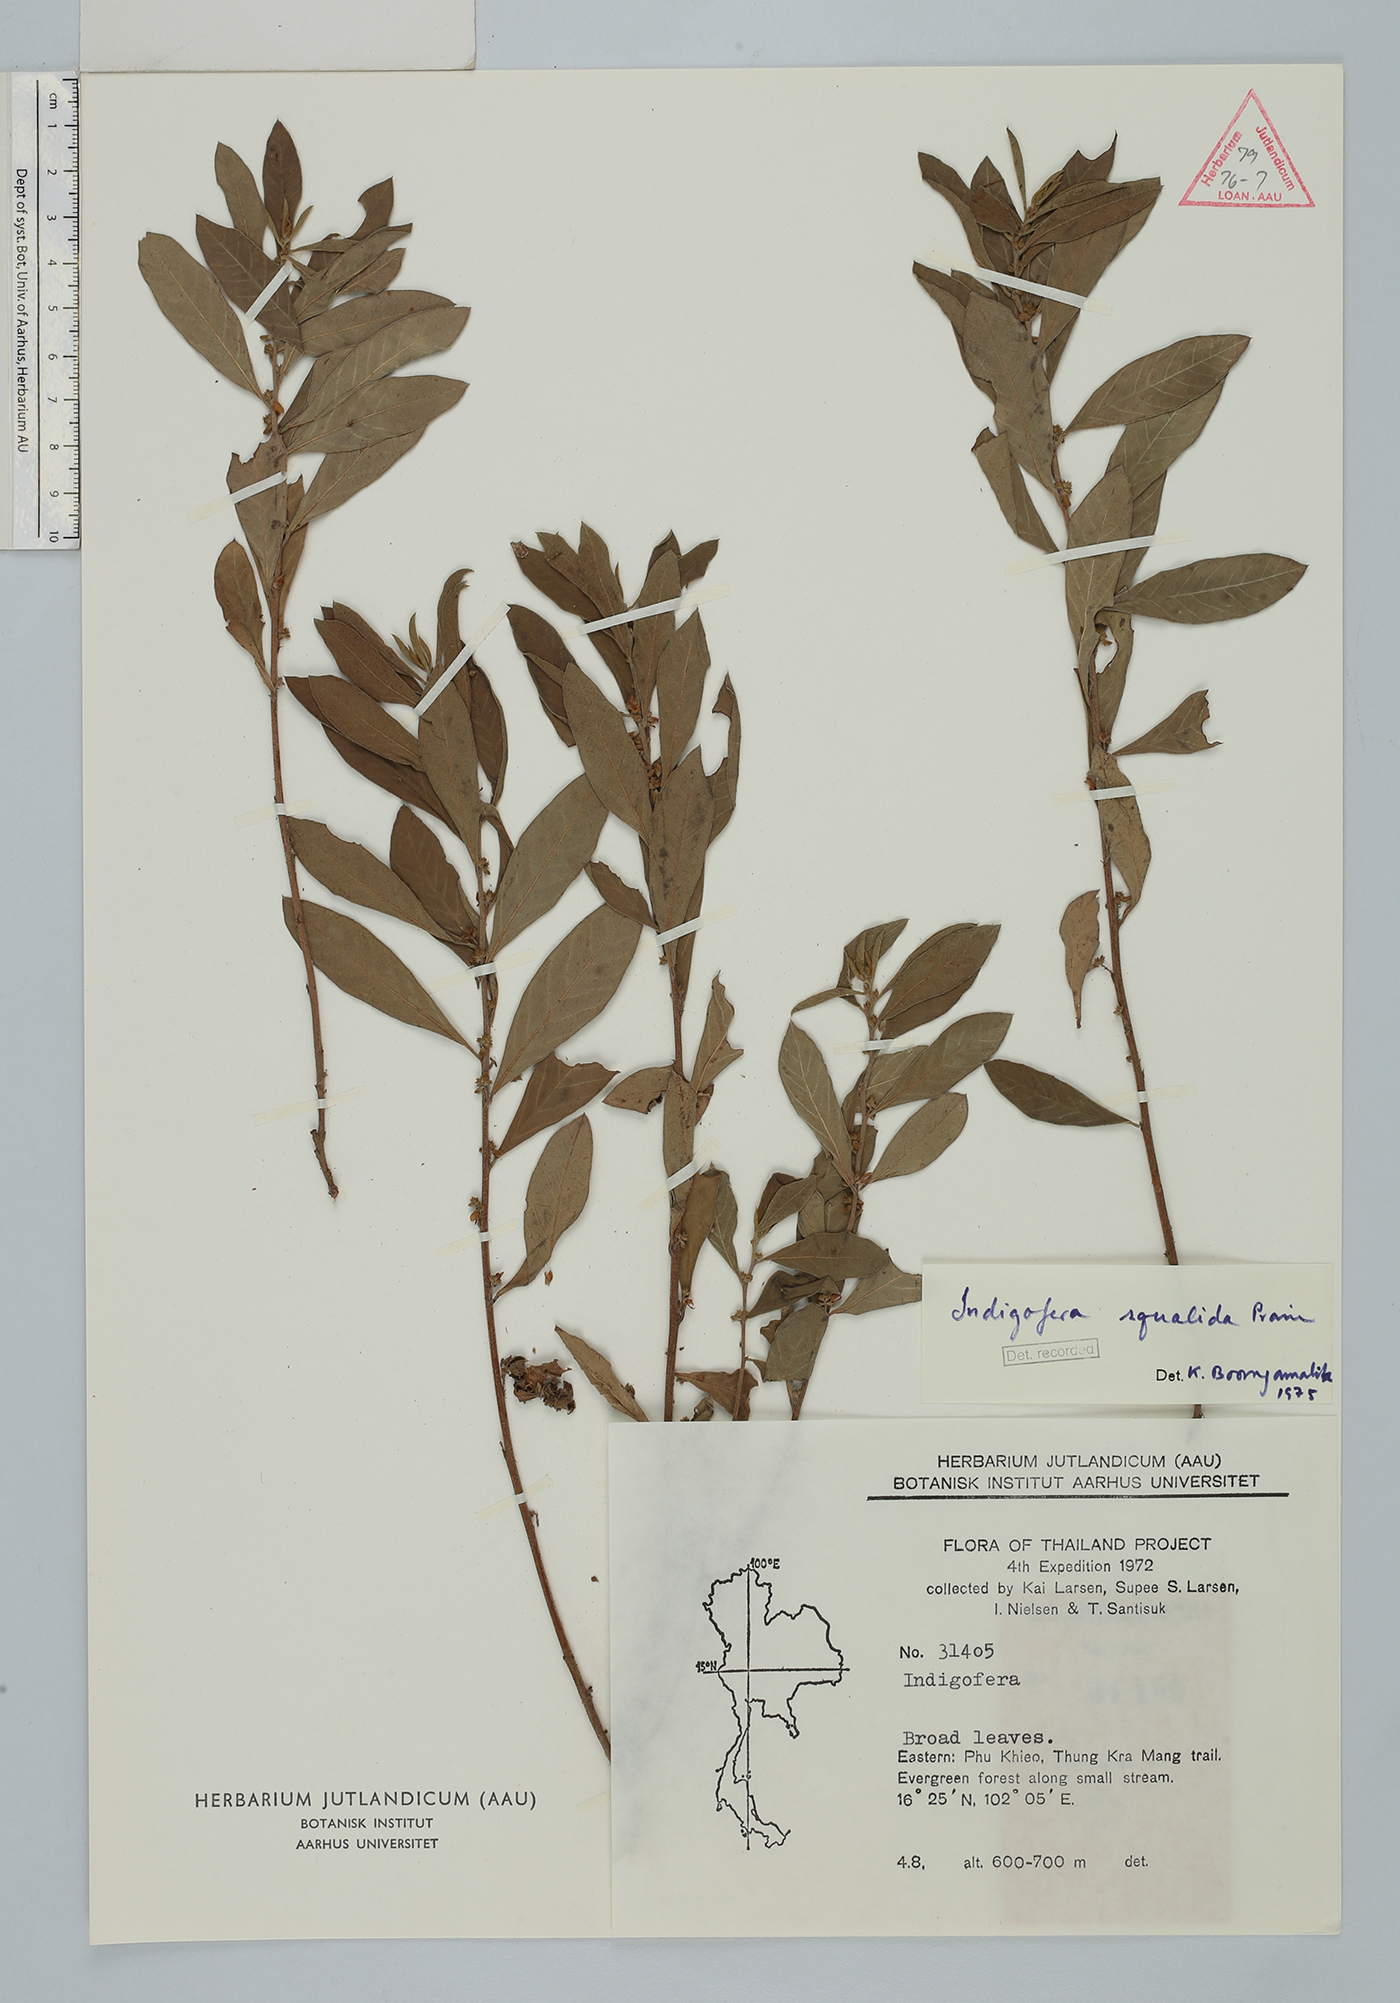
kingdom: Plantae
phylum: Tracheophyta
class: Magnoliopsida
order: Fabales
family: Fabaceae
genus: Indigofera
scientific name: Indigofera squalida
